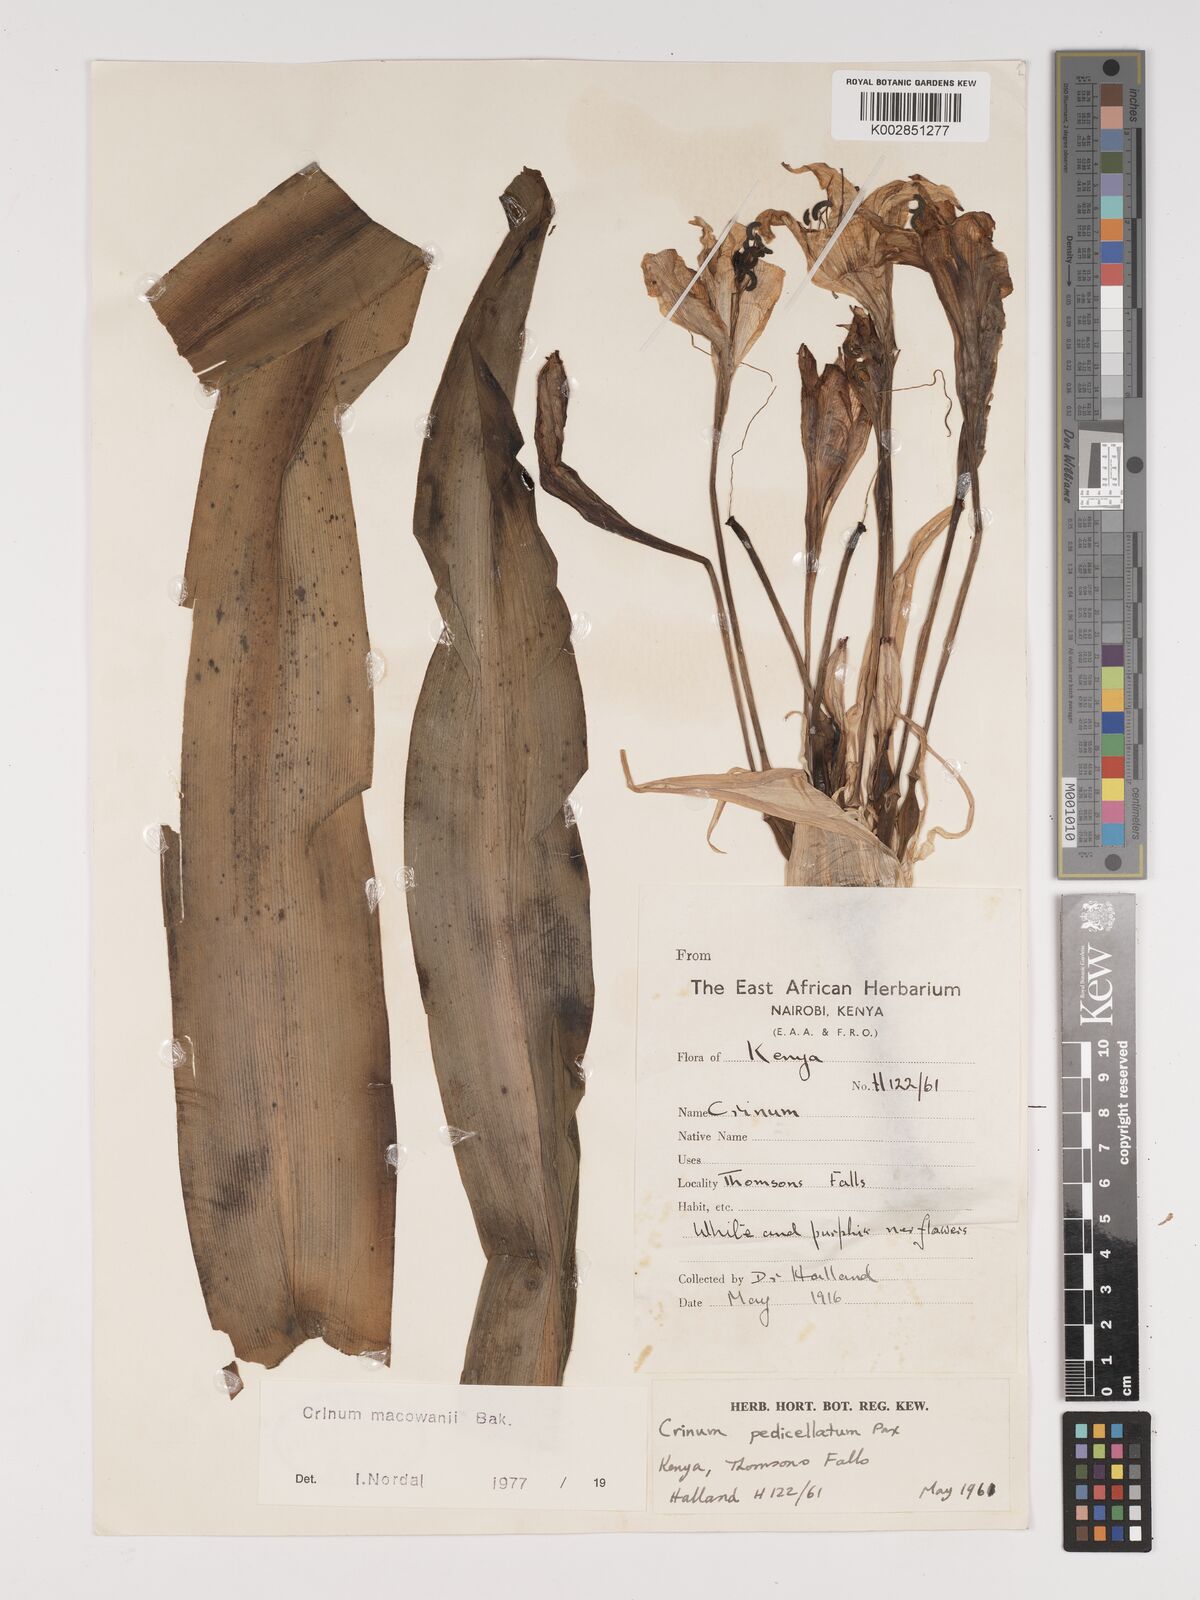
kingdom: Plantae
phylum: Tracheophyta
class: Liliopsida
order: Asparagales
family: Amaryllidaceae
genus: Crinum
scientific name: Crinum macowanii
